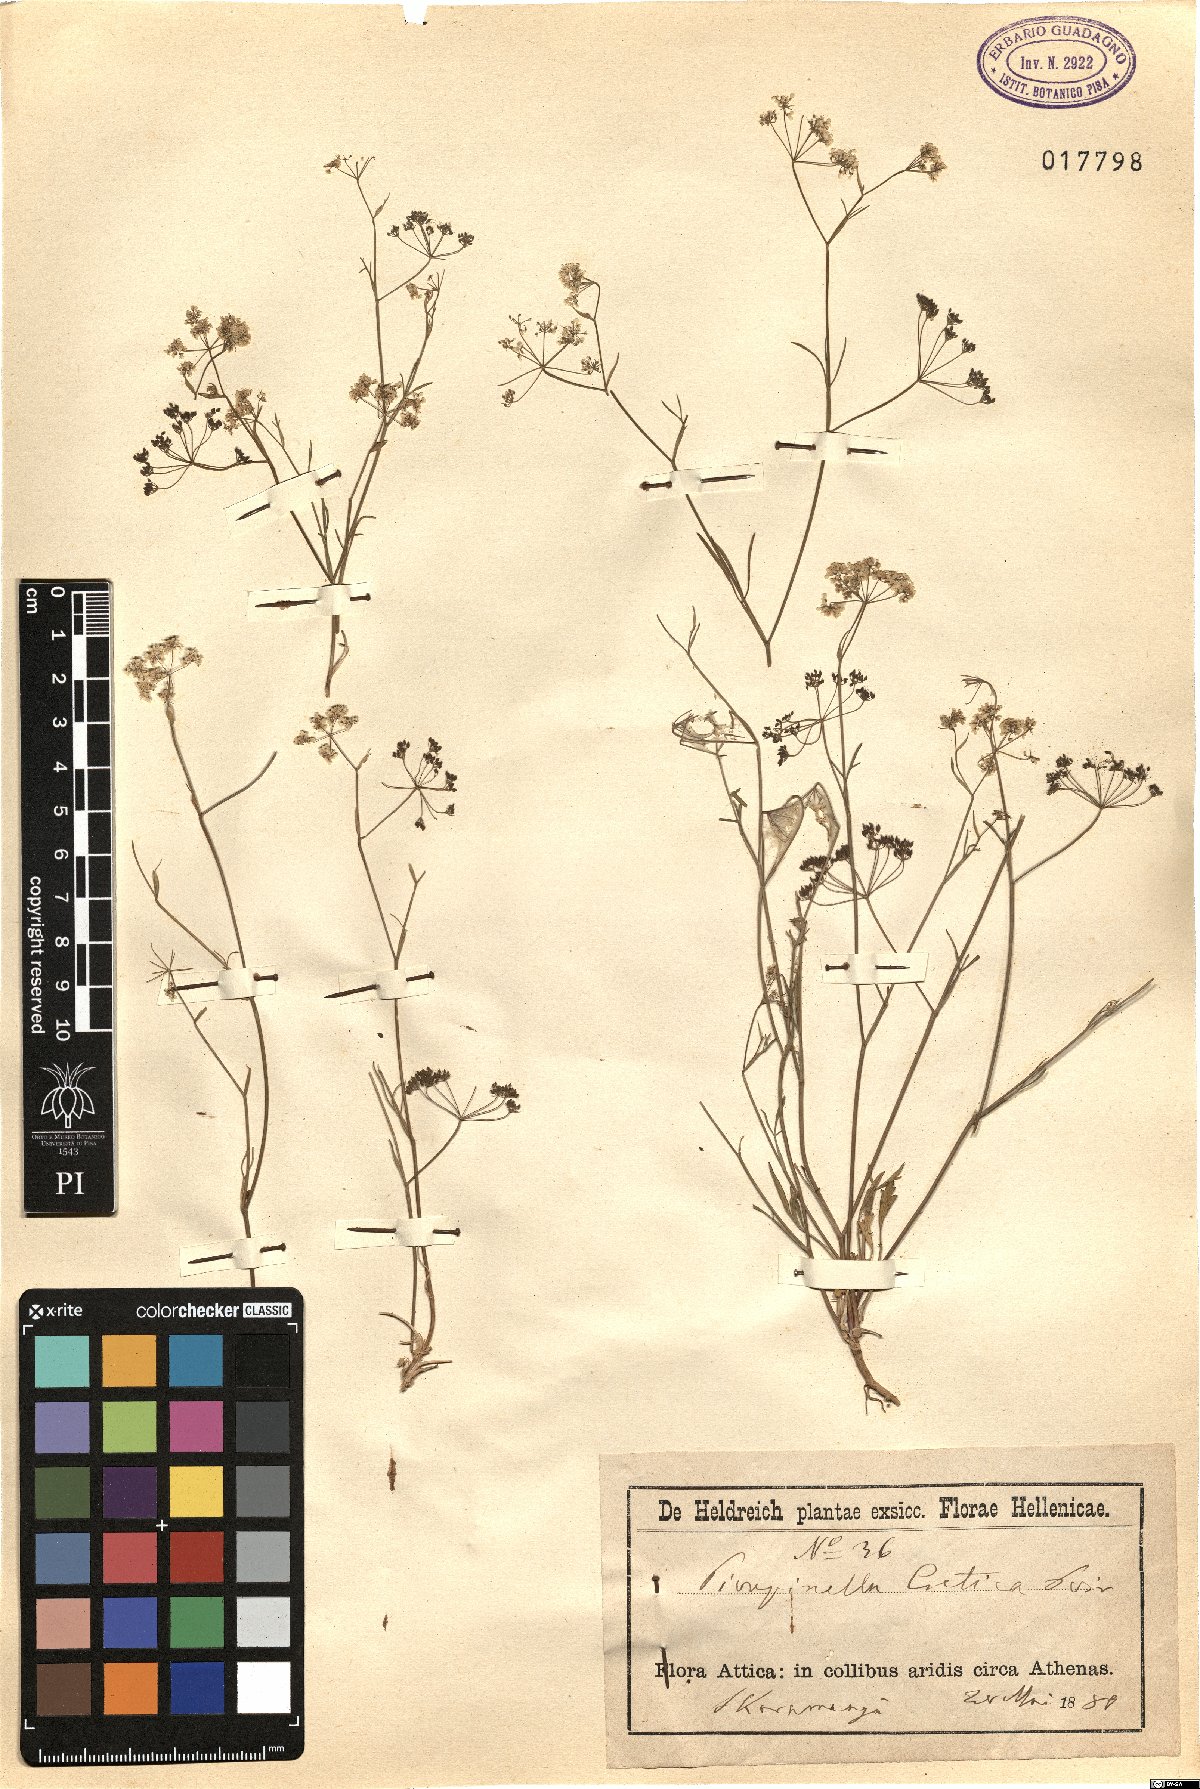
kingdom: Plantae
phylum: Tracheophyta
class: Magnoliopsida
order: Apiales
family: Apiaceae
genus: Pimpinella
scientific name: Pimpinella cretica
